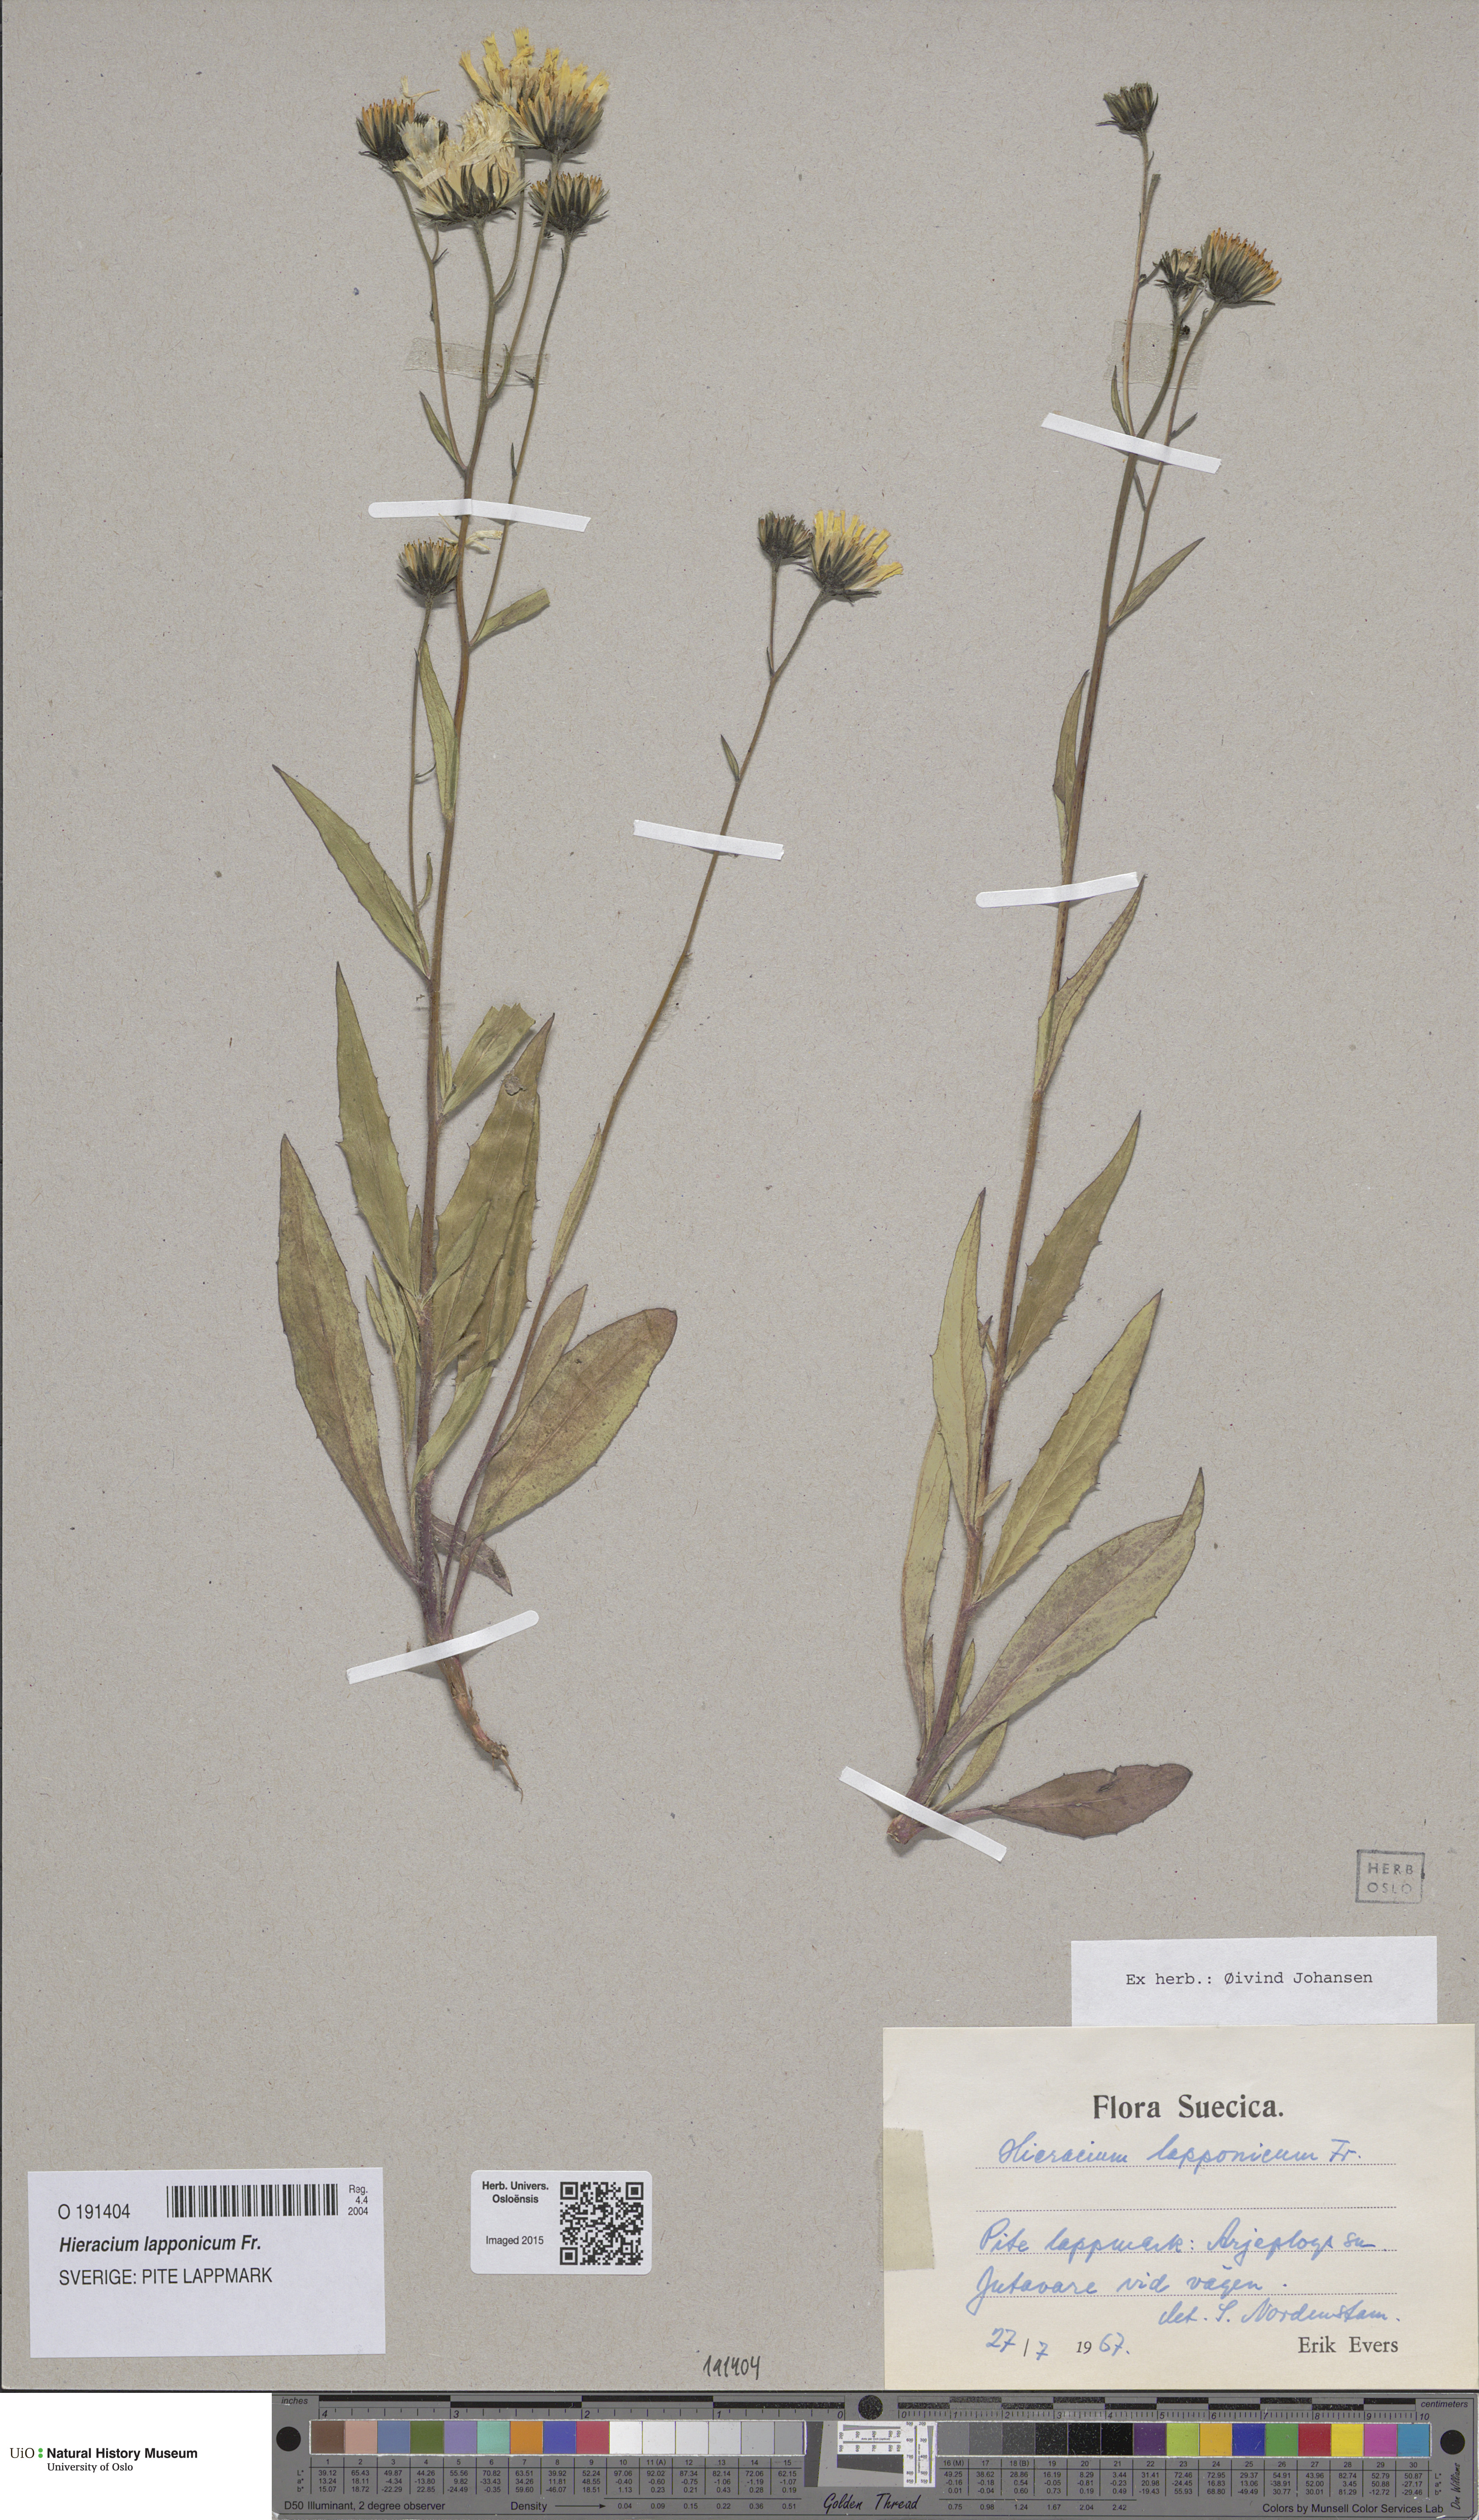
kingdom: Plantae
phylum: Tracheophyta
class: Magnoliopsida
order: Asterales
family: Asteraceae
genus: Hieracium
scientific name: Hieracium lapponicum
